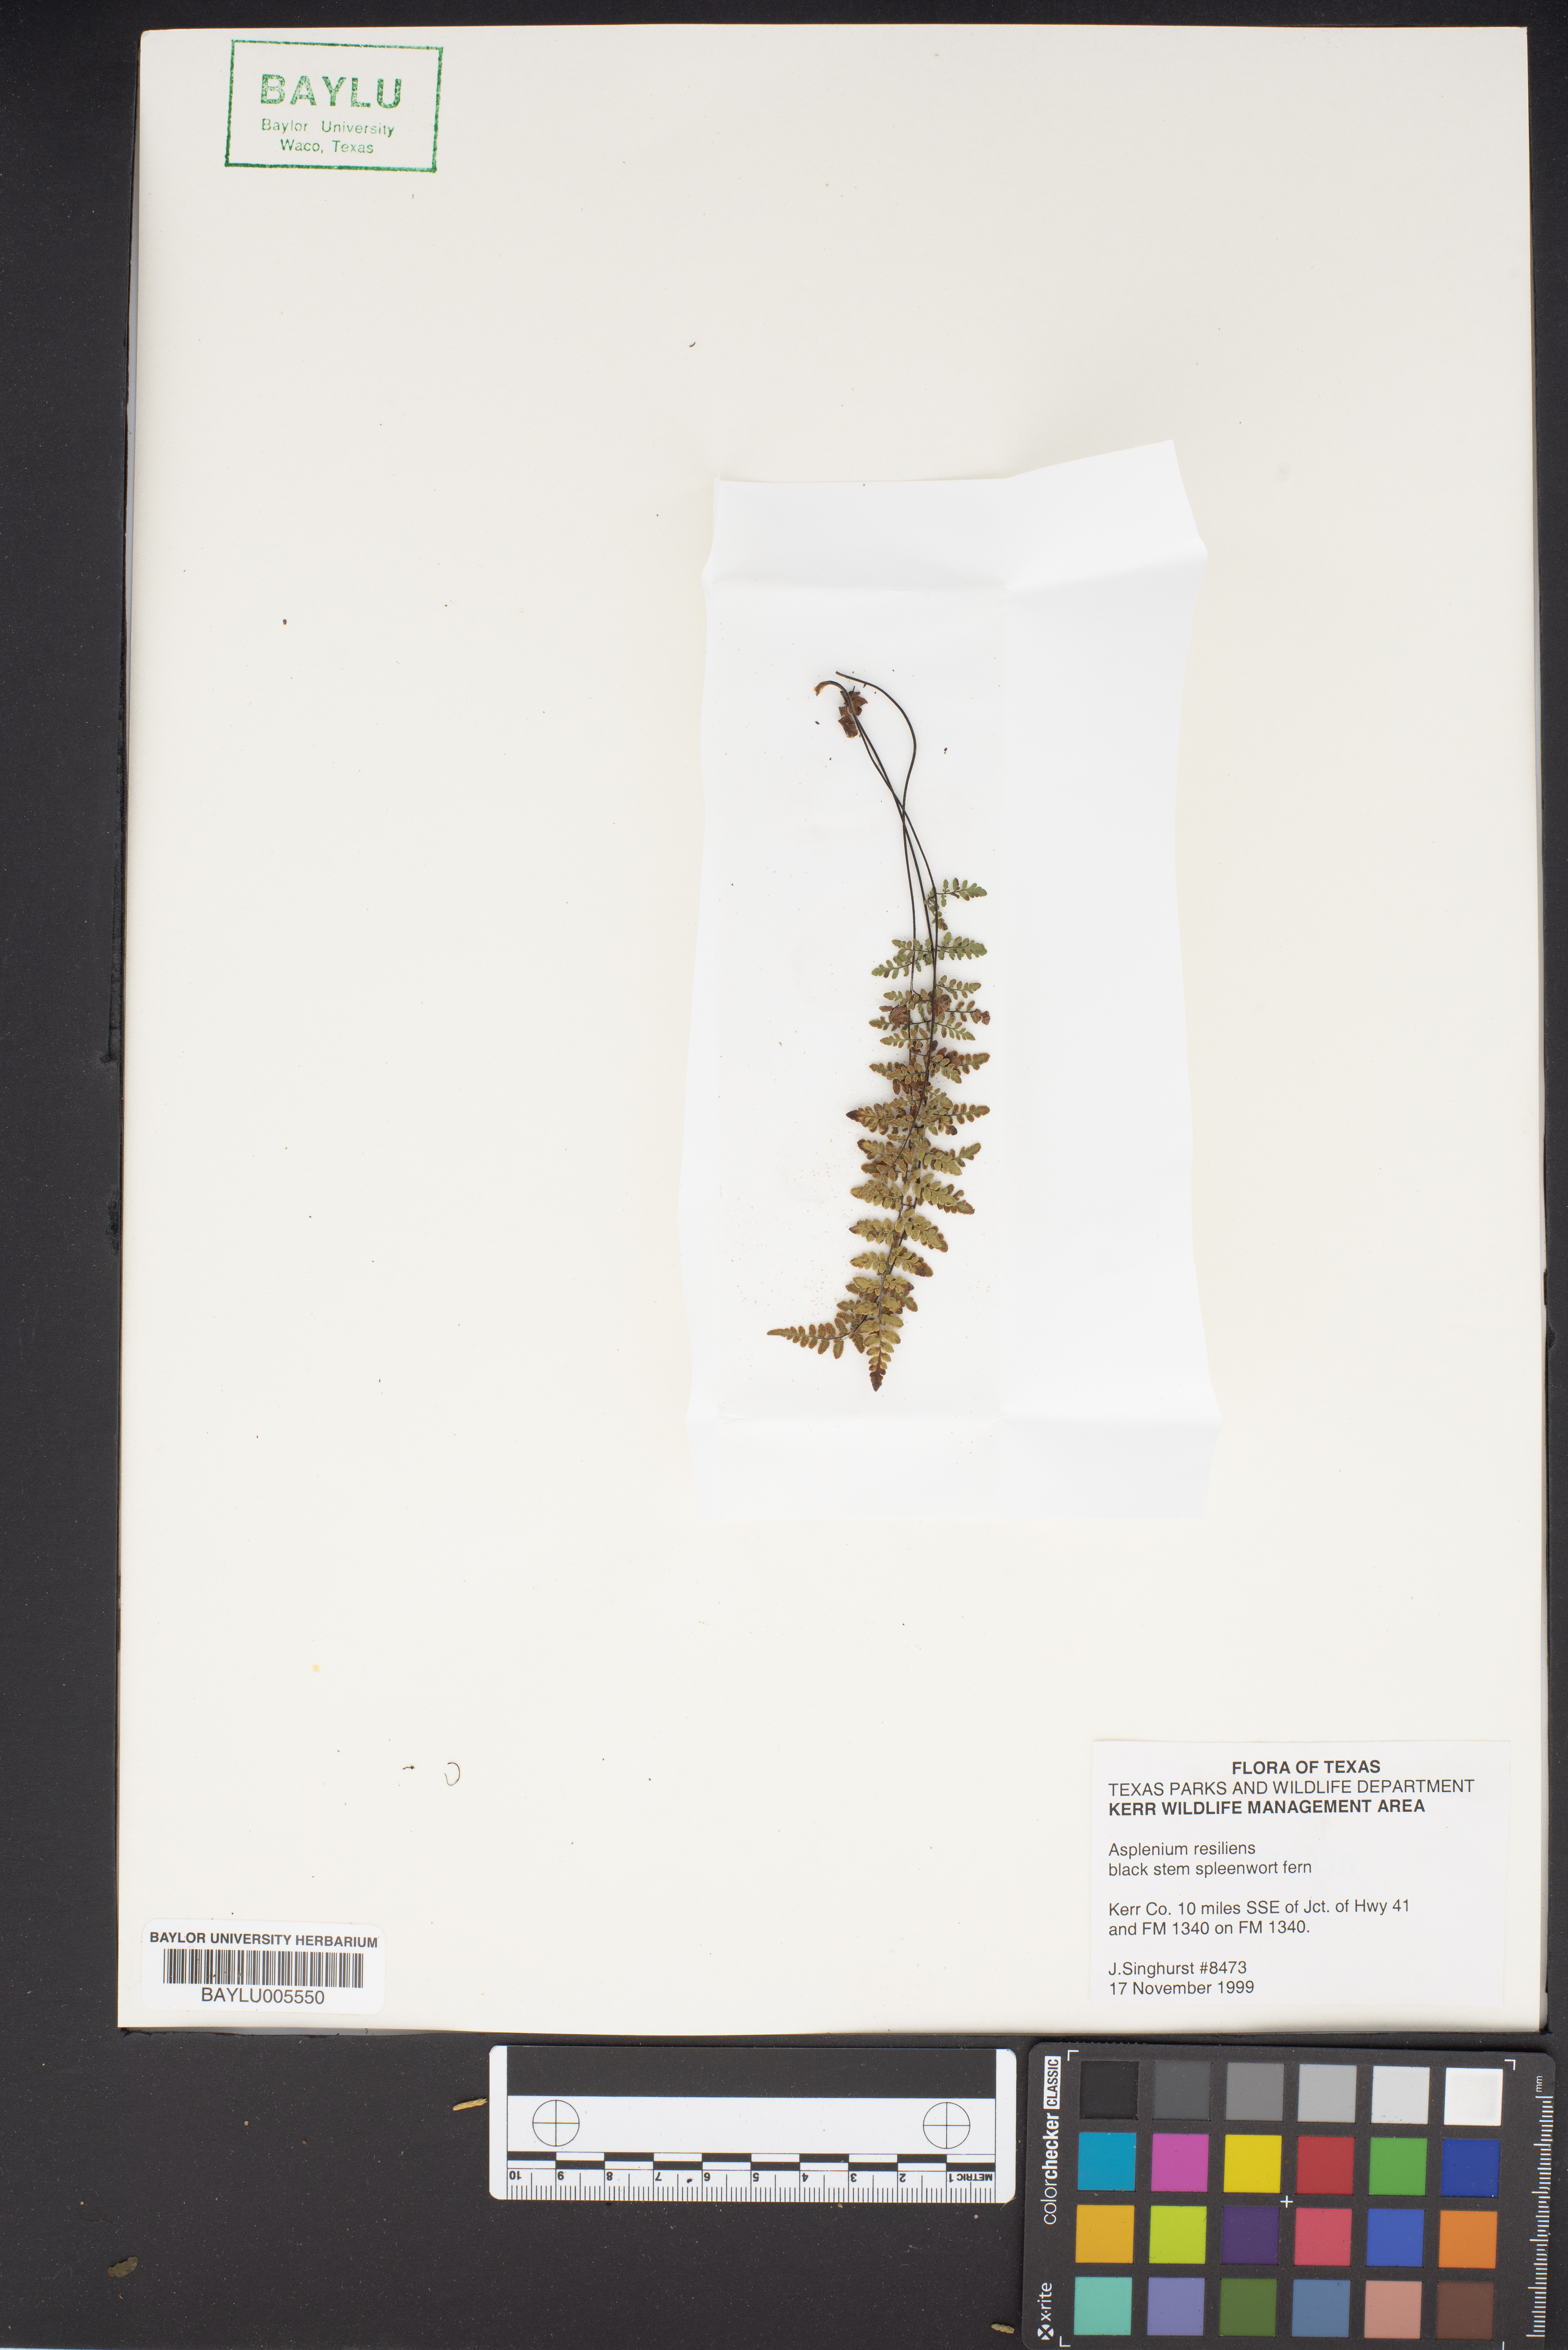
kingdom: Plantae
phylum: Tracheophyta
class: Polypodiopsida
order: Polypodiales
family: Aspleniaceae
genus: Asplenium
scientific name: Asplenium resiliens
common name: Blackstem spleenwort
